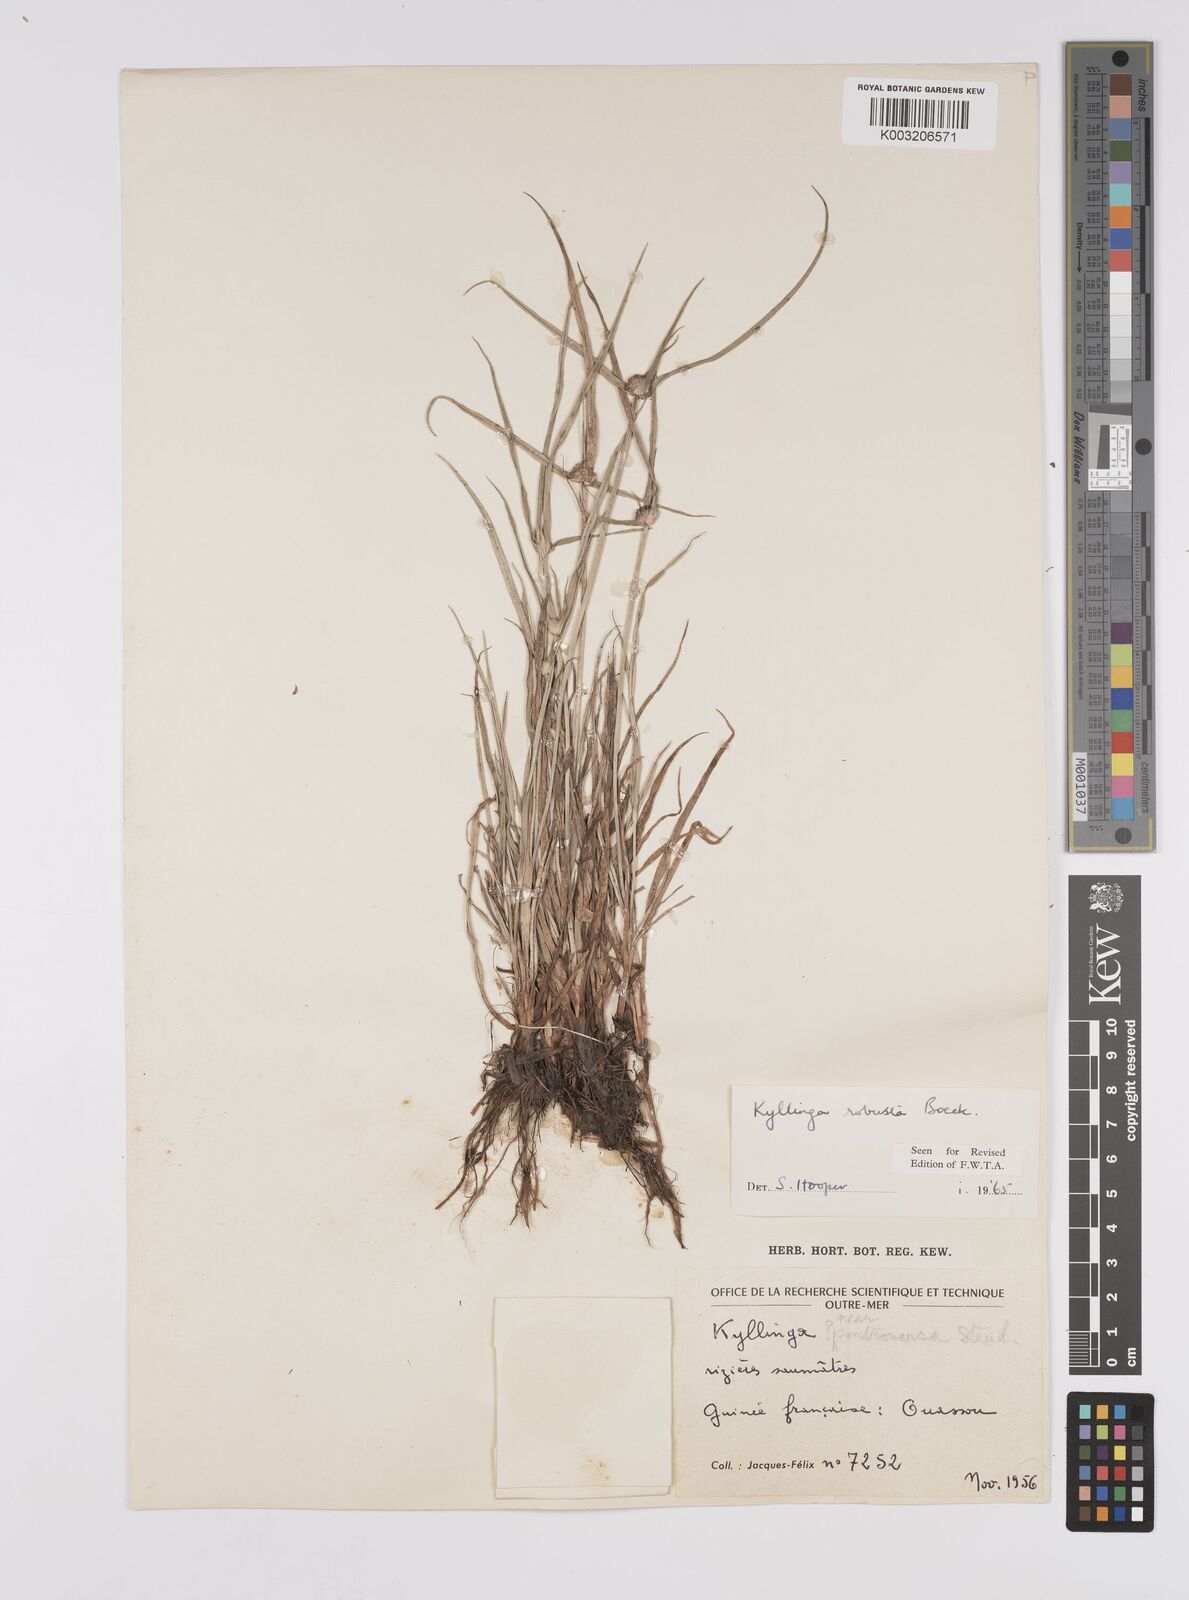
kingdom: Plantae
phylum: Tracheophyta
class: Liliopsida
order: Poales
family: Cyperaceae
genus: Cyperus
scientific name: Cyperus
